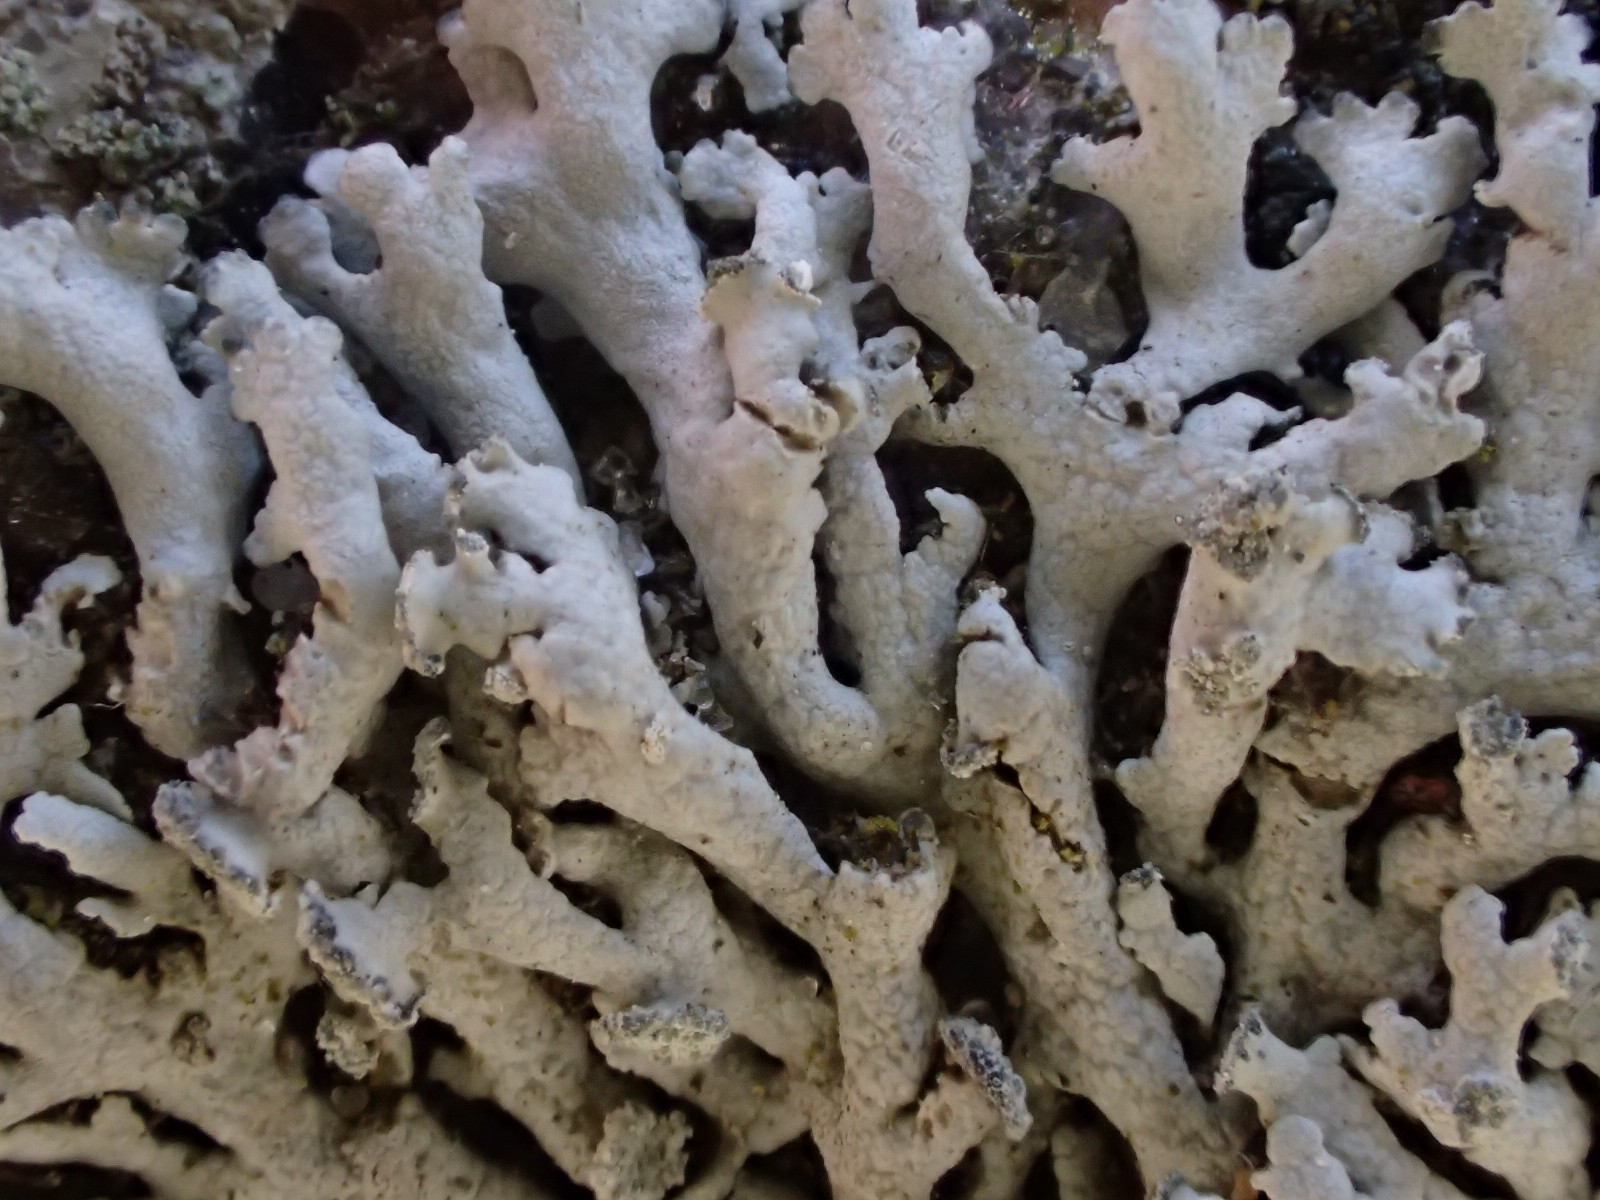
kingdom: Fungi
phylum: Ascomycota
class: Lecanoromycetes
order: Caliciales
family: Physciaceae
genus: Physcia
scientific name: Physcia dubia
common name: fuglestens-rosetlav
